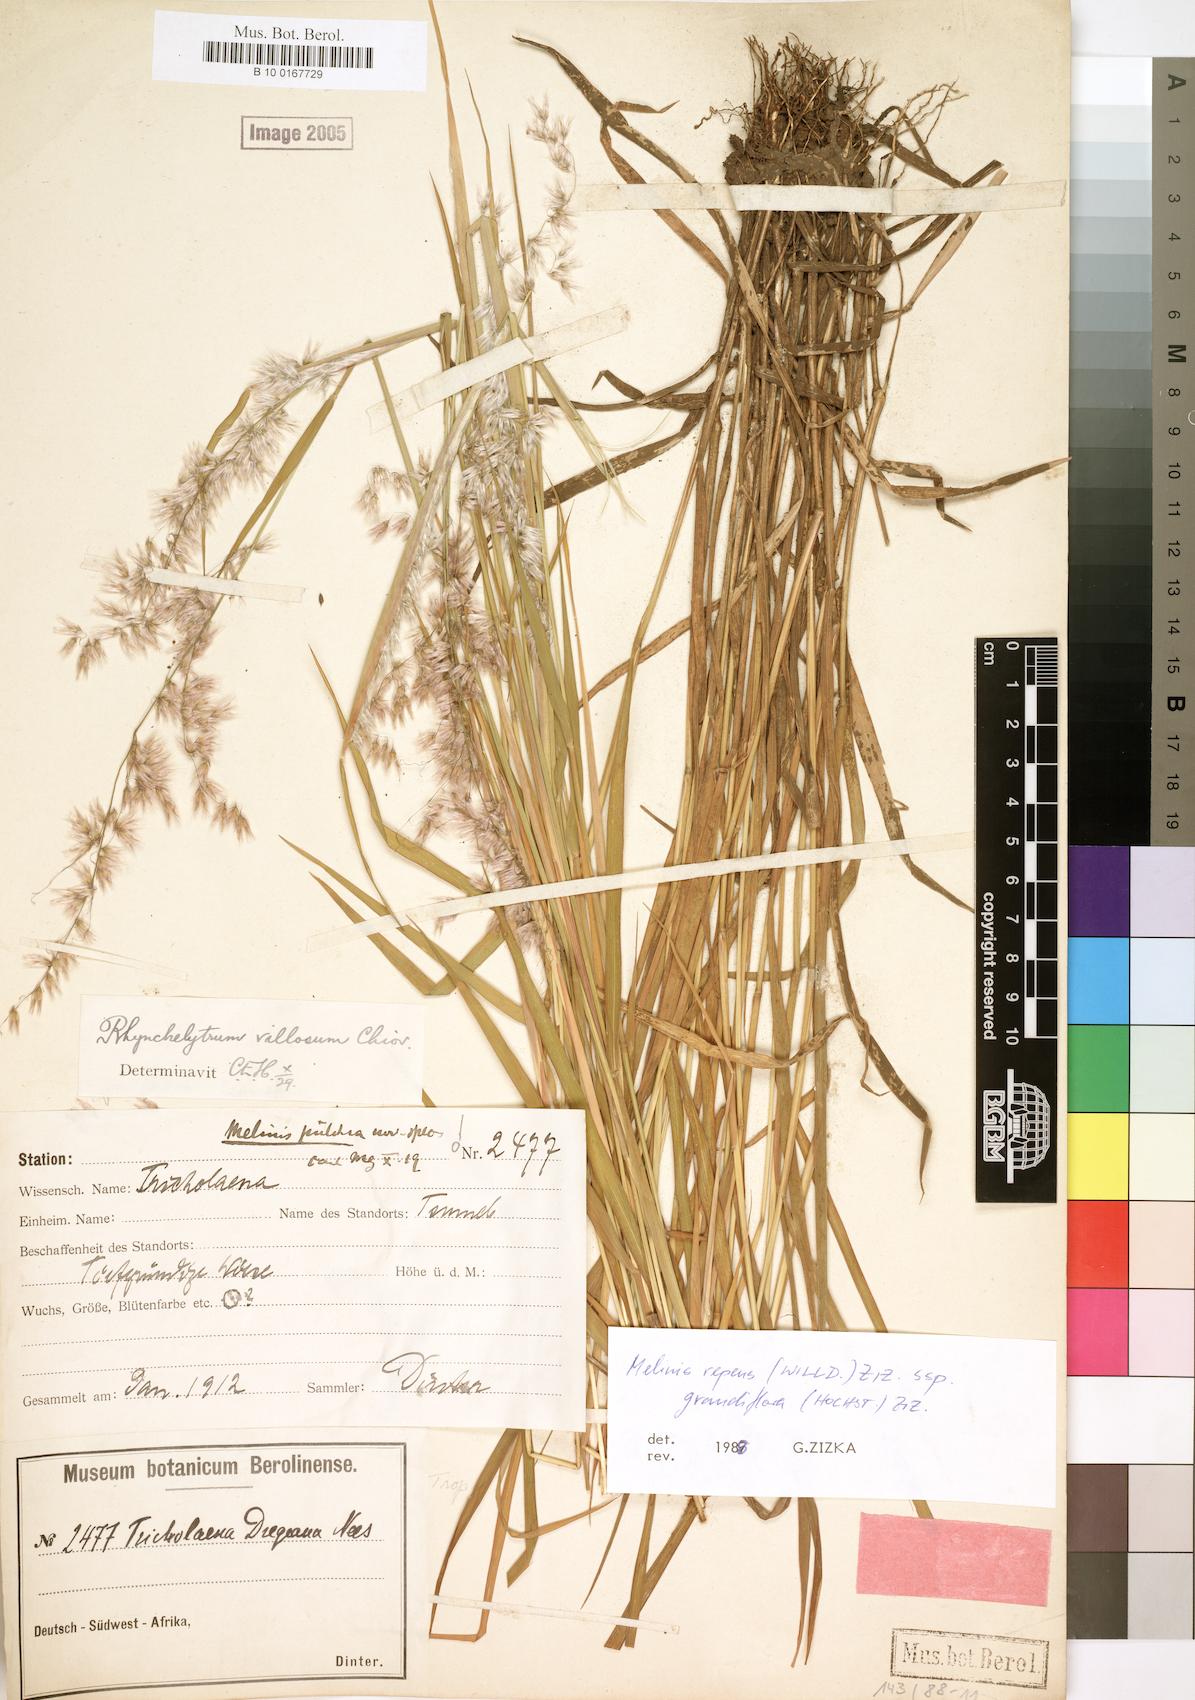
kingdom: Plantae
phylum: Tracheophyta
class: Liliopsida
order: Poales
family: Poaceae
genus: Melinis
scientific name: Melinis repens
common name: Rose natal grass
